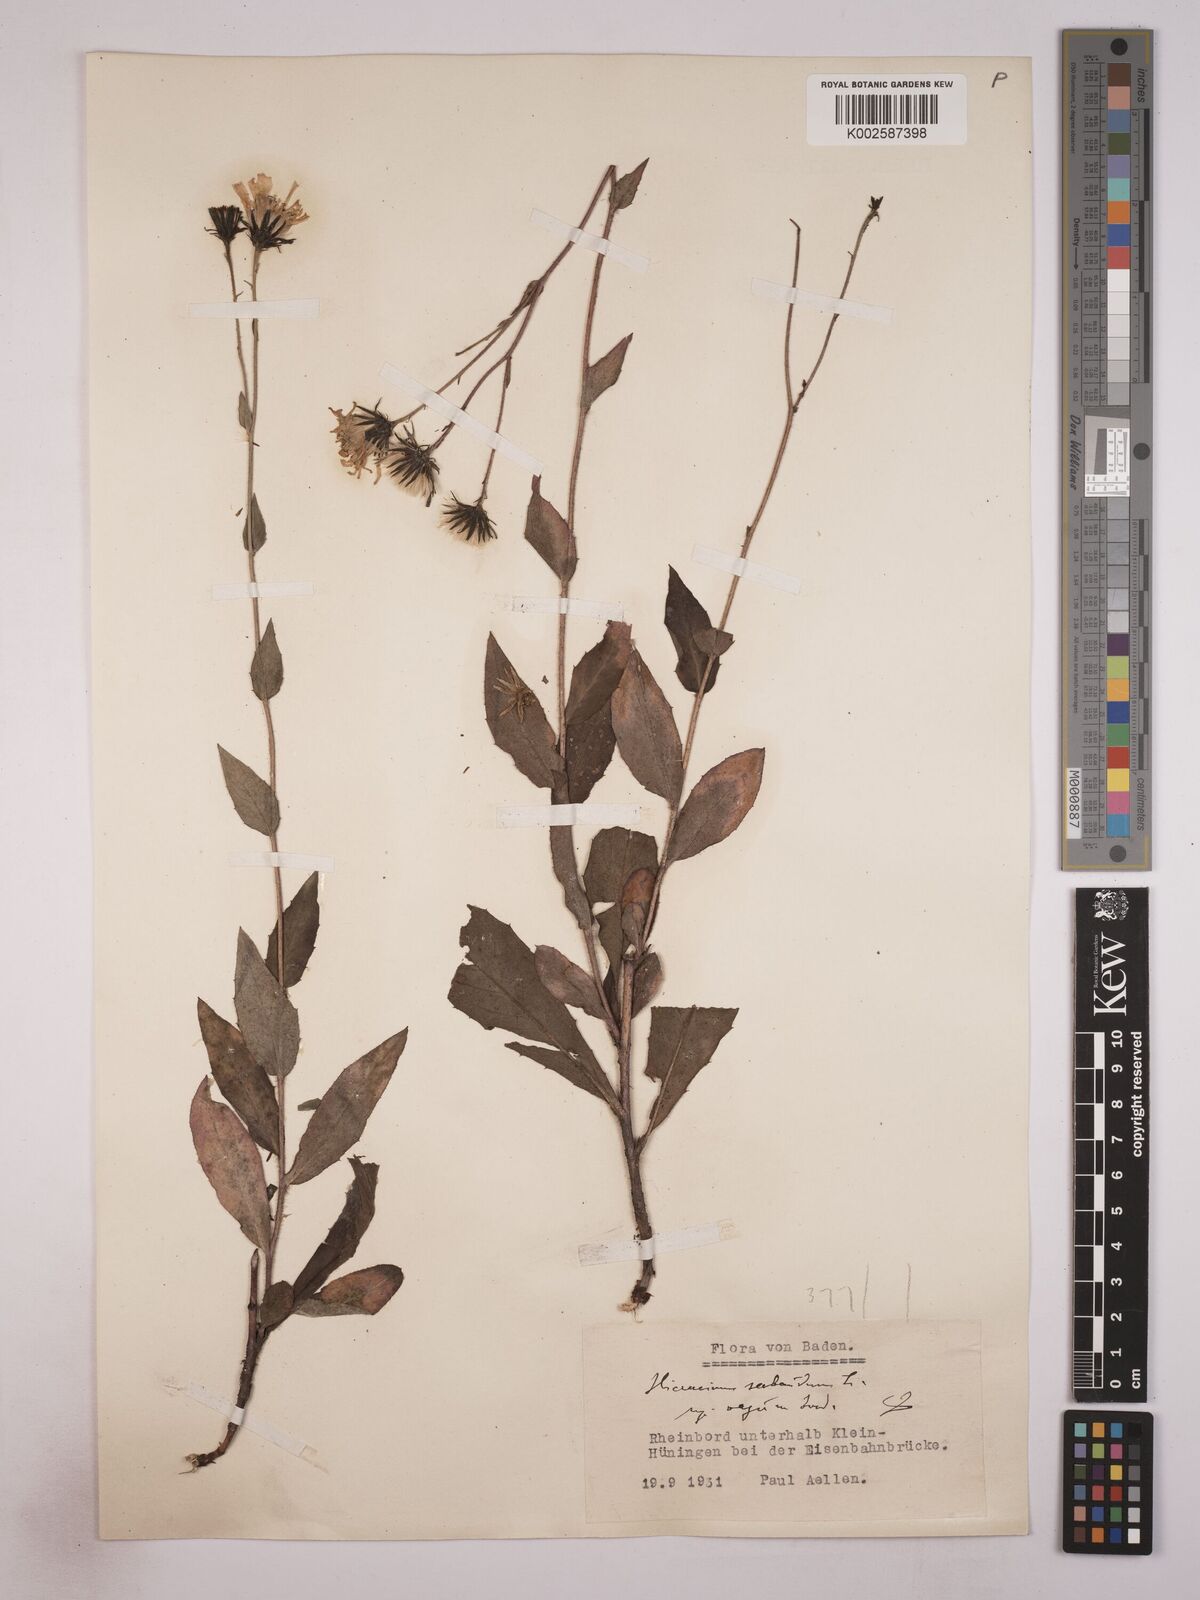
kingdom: Plantae
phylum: Tracheophyta
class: Magnoliopsida
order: Asterales
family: Asteraceae
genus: Hieracium
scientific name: Hieracium subaudum
